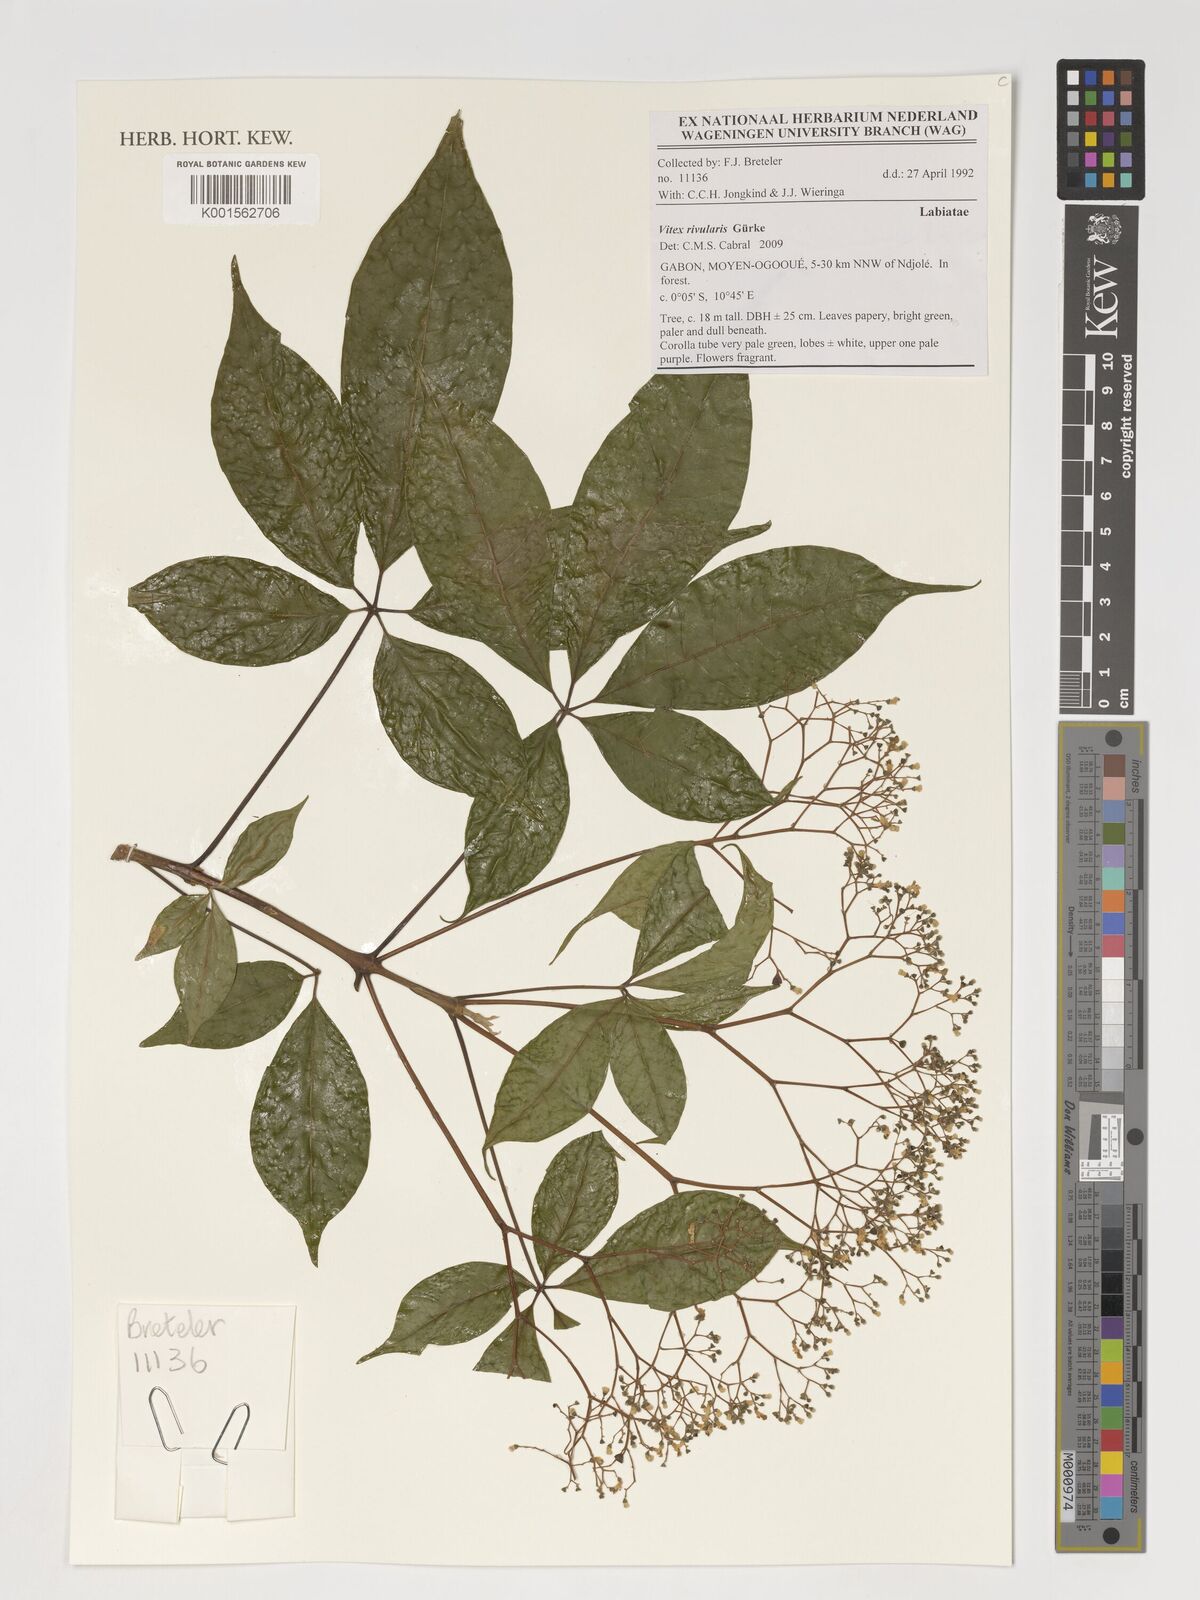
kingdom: Plantae
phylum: Tracheophyta
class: Magnoliopsida
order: Lamiales
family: Lamiaceae
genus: Vitex
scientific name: Vitex rivularis
